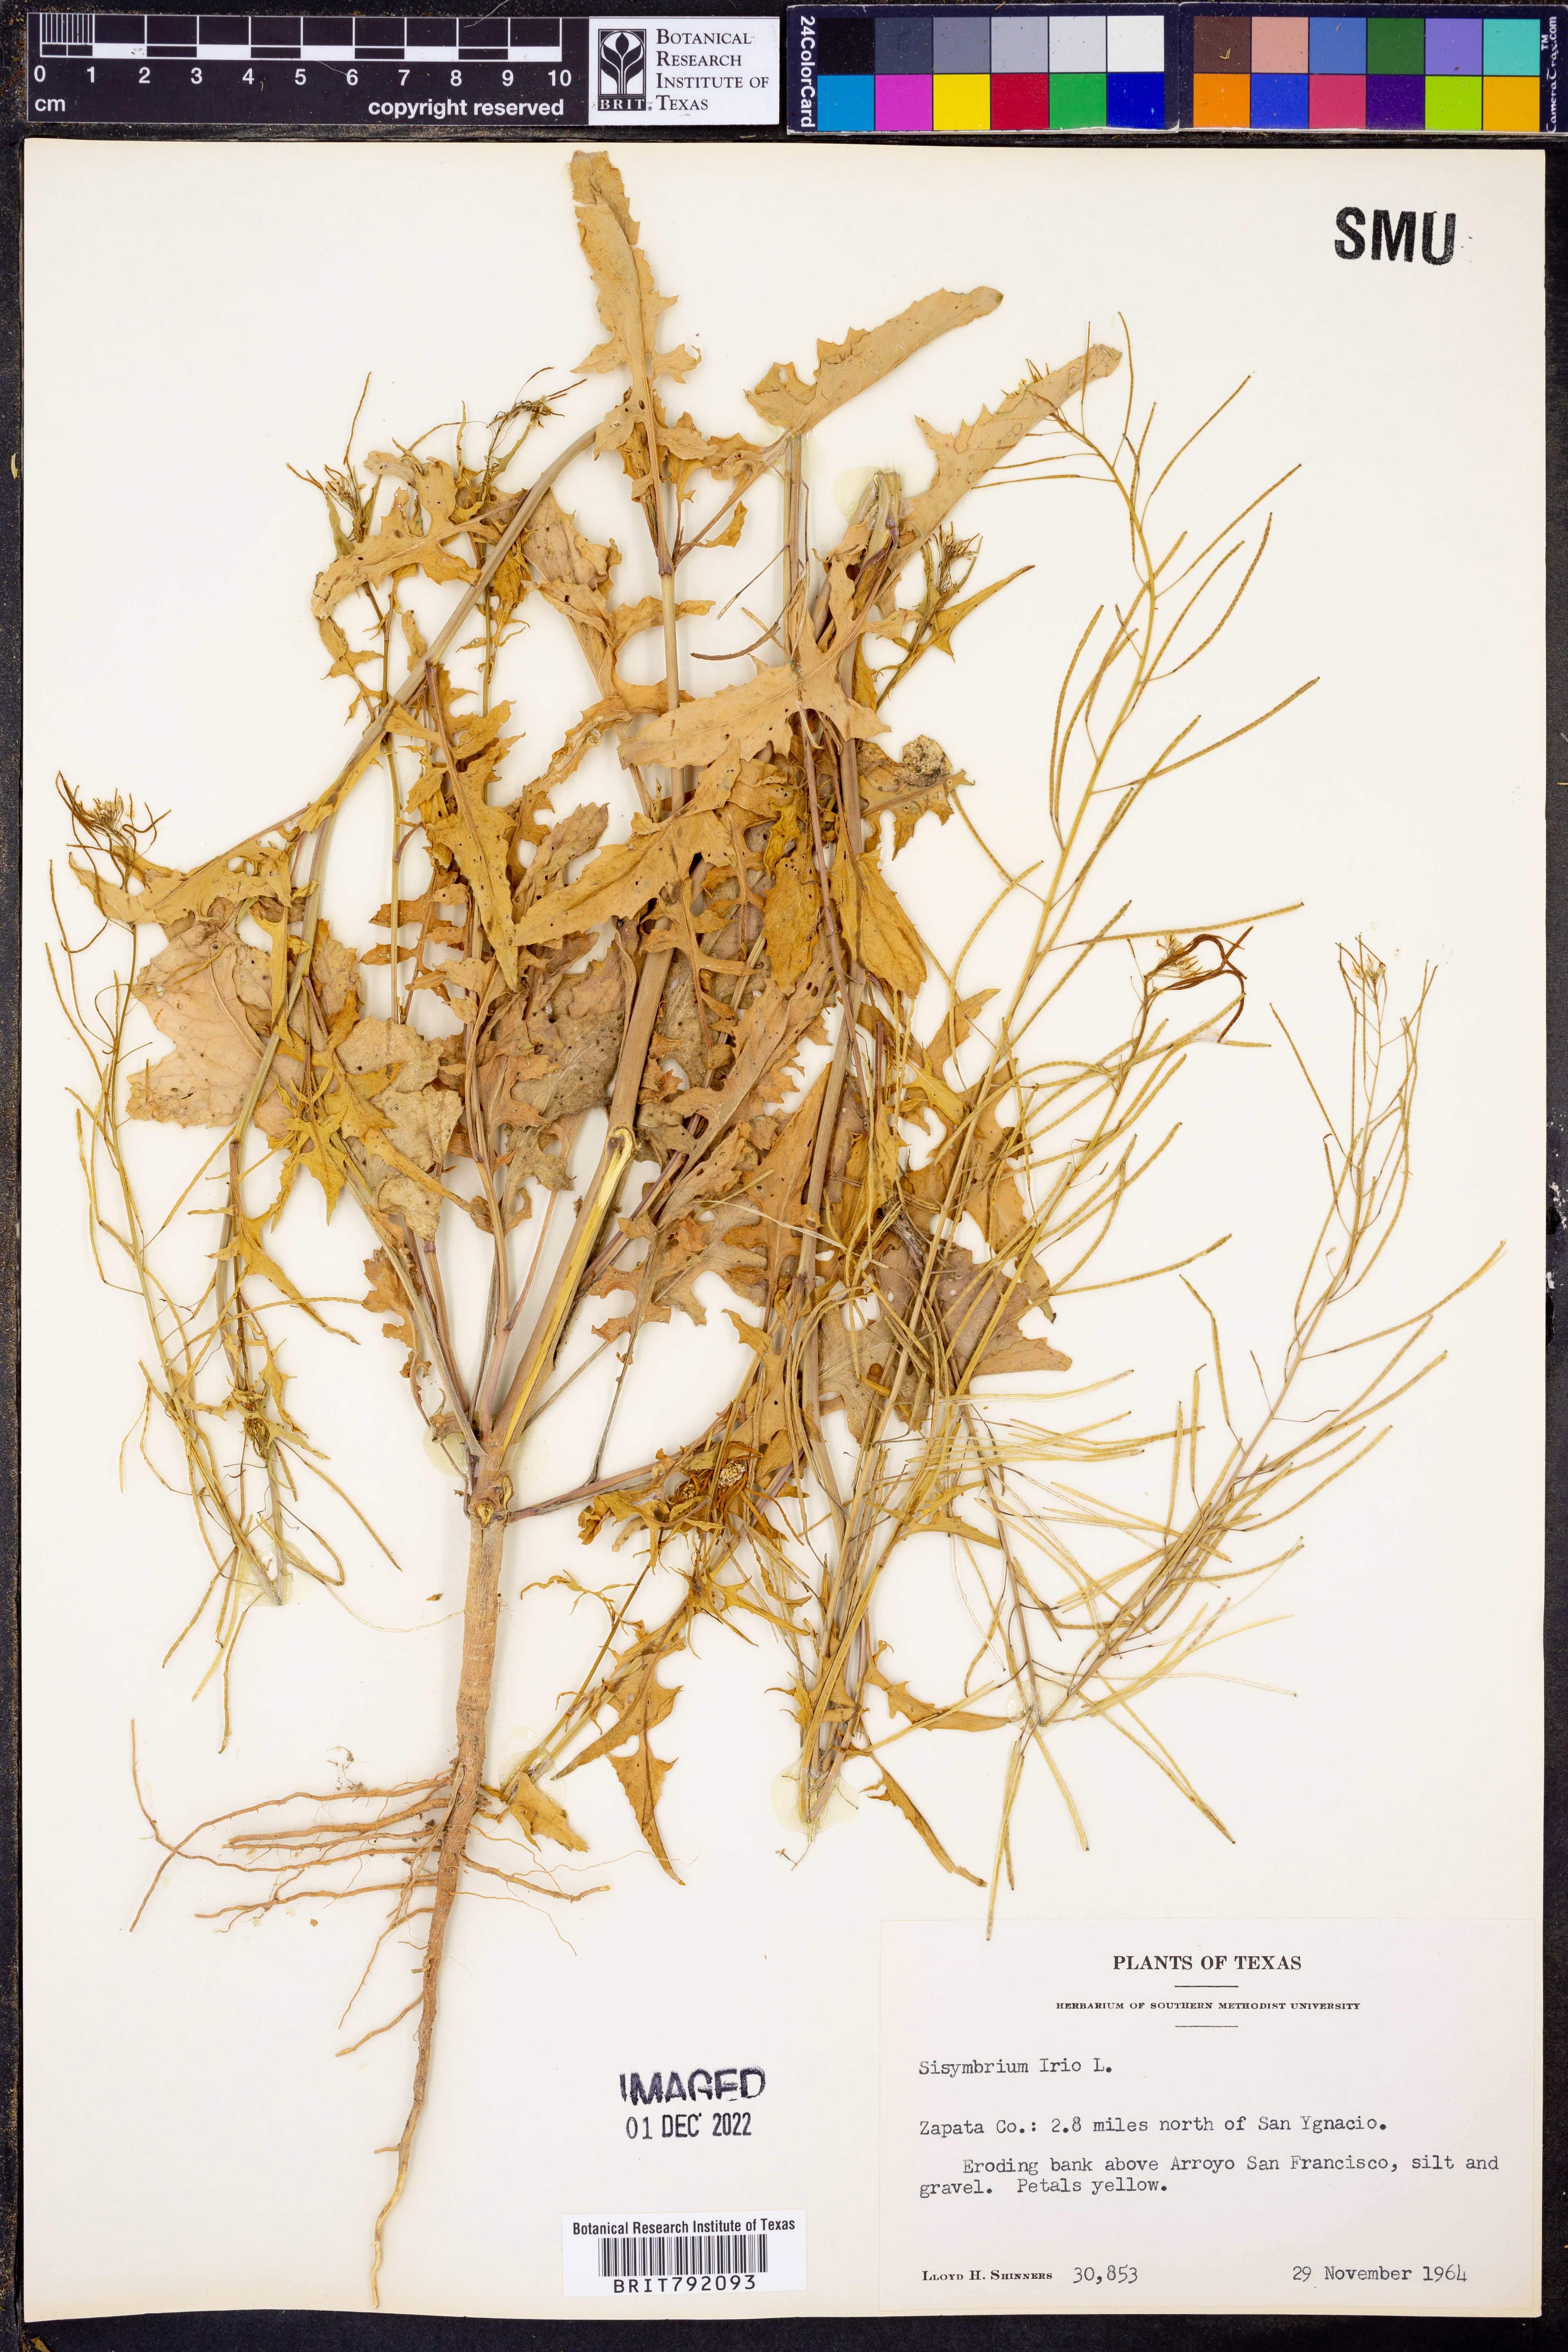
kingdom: Plantae
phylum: Tracheophyta
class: Magnoliopsida
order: Brassicales
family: Brassicaceae
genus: Sisymbrium
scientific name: Sisymbrium irio
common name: London rocket
